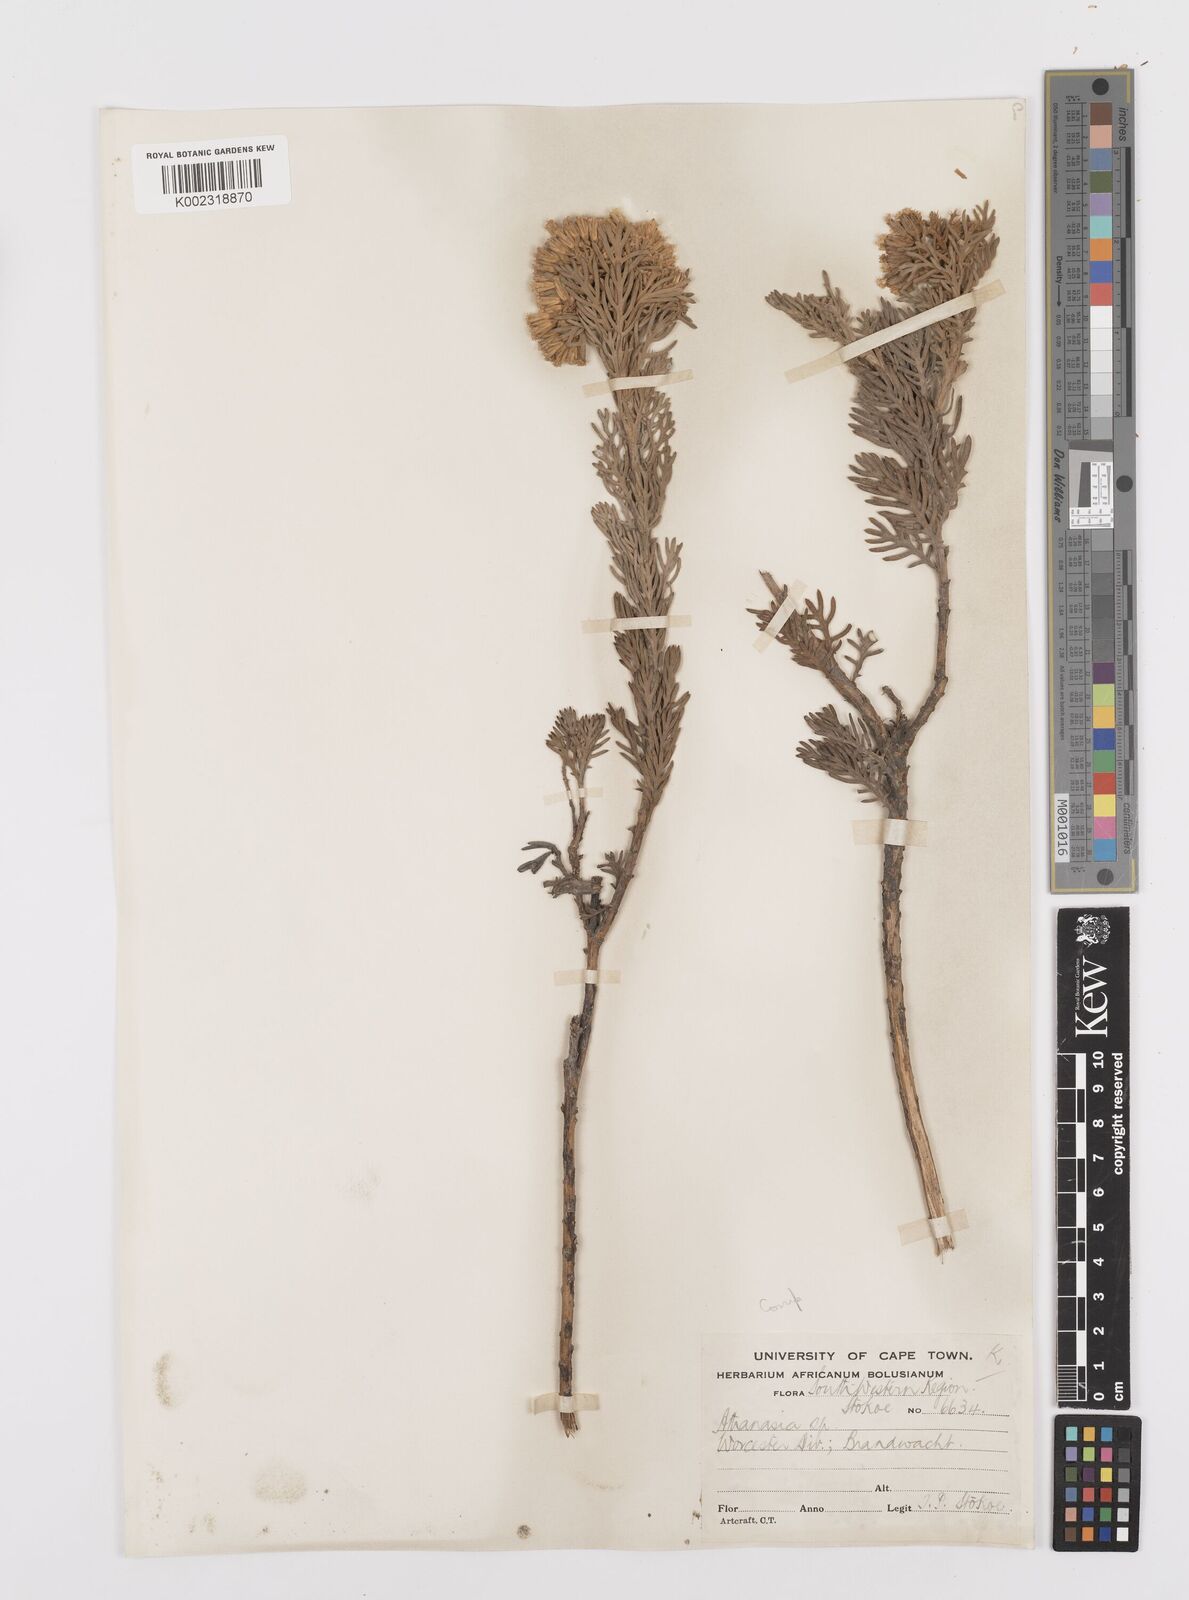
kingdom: Plantae
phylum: Tracheophyta
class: Magnoliopsida
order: Asterales
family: Asteraceae
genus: Hymenolepis
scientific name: Hymenolepis speciosa
